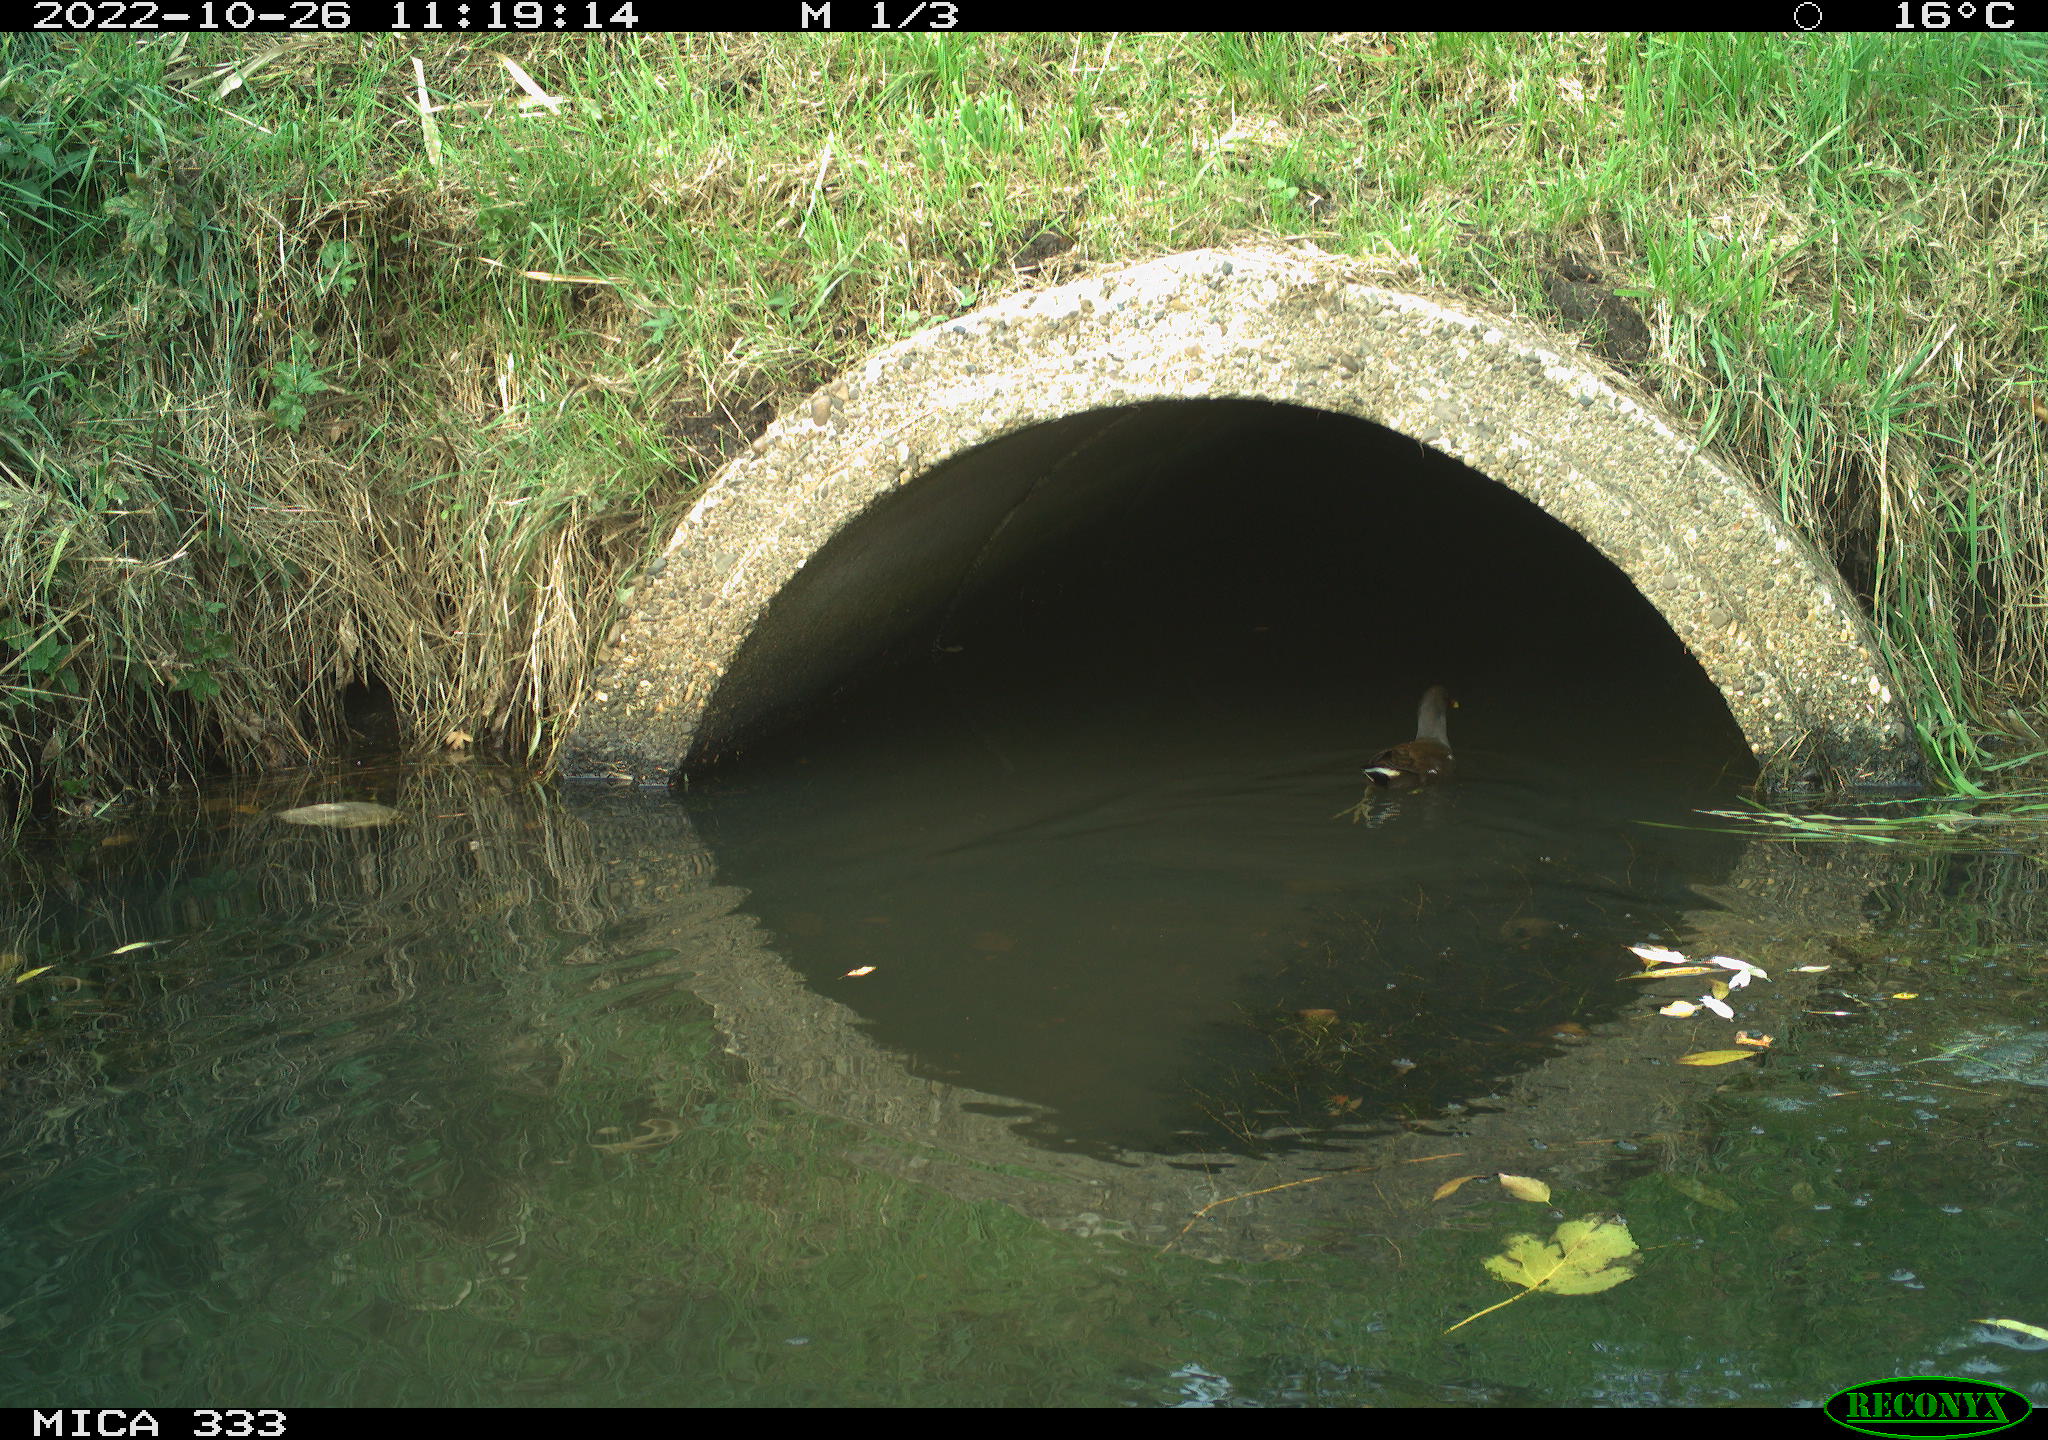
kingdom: Animalia
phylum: Chordata
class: Aves
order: Gruiformes
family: Rallidae
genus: Gallinula
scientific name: Gallinula chloropus
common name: Common moorhen
